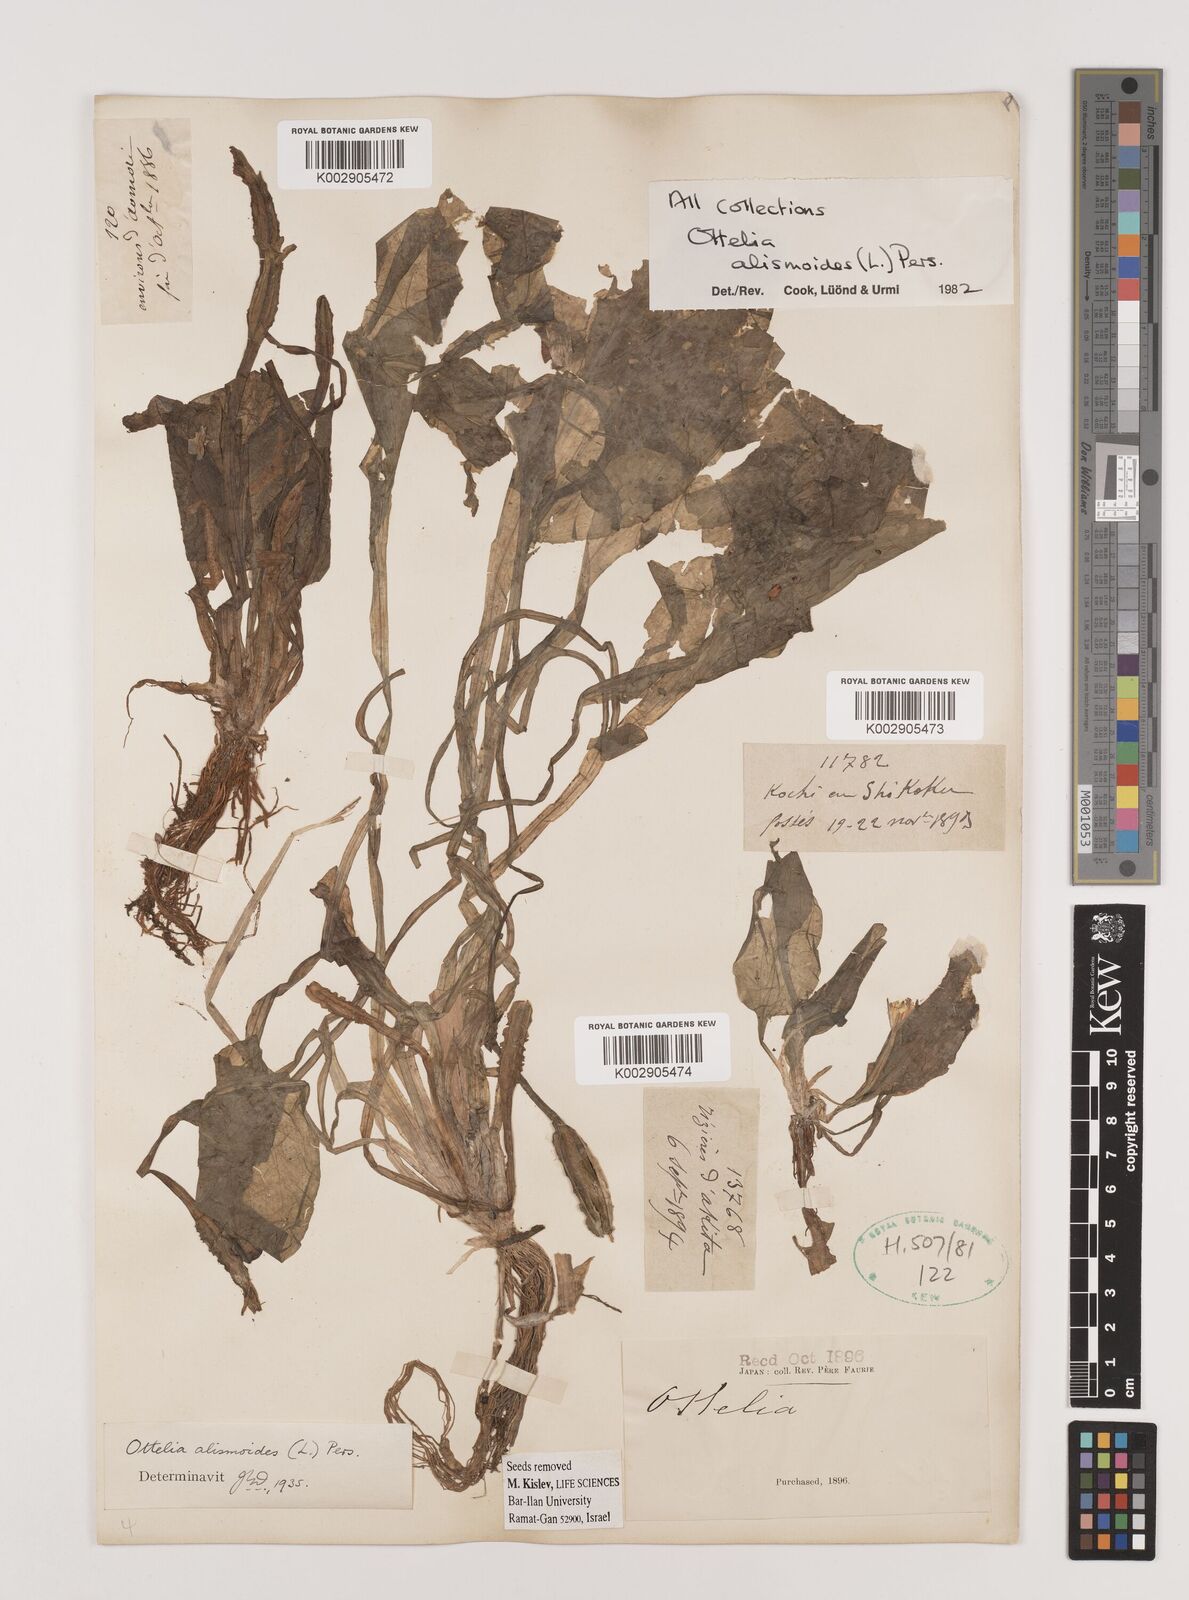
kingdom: Plantae
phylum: Tracheophyta
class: Liliopsida
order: Alismatales
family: Hydrocharitaceae
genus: Ottelia
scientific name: Ottelia alismoides
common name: Duck-lettuce
